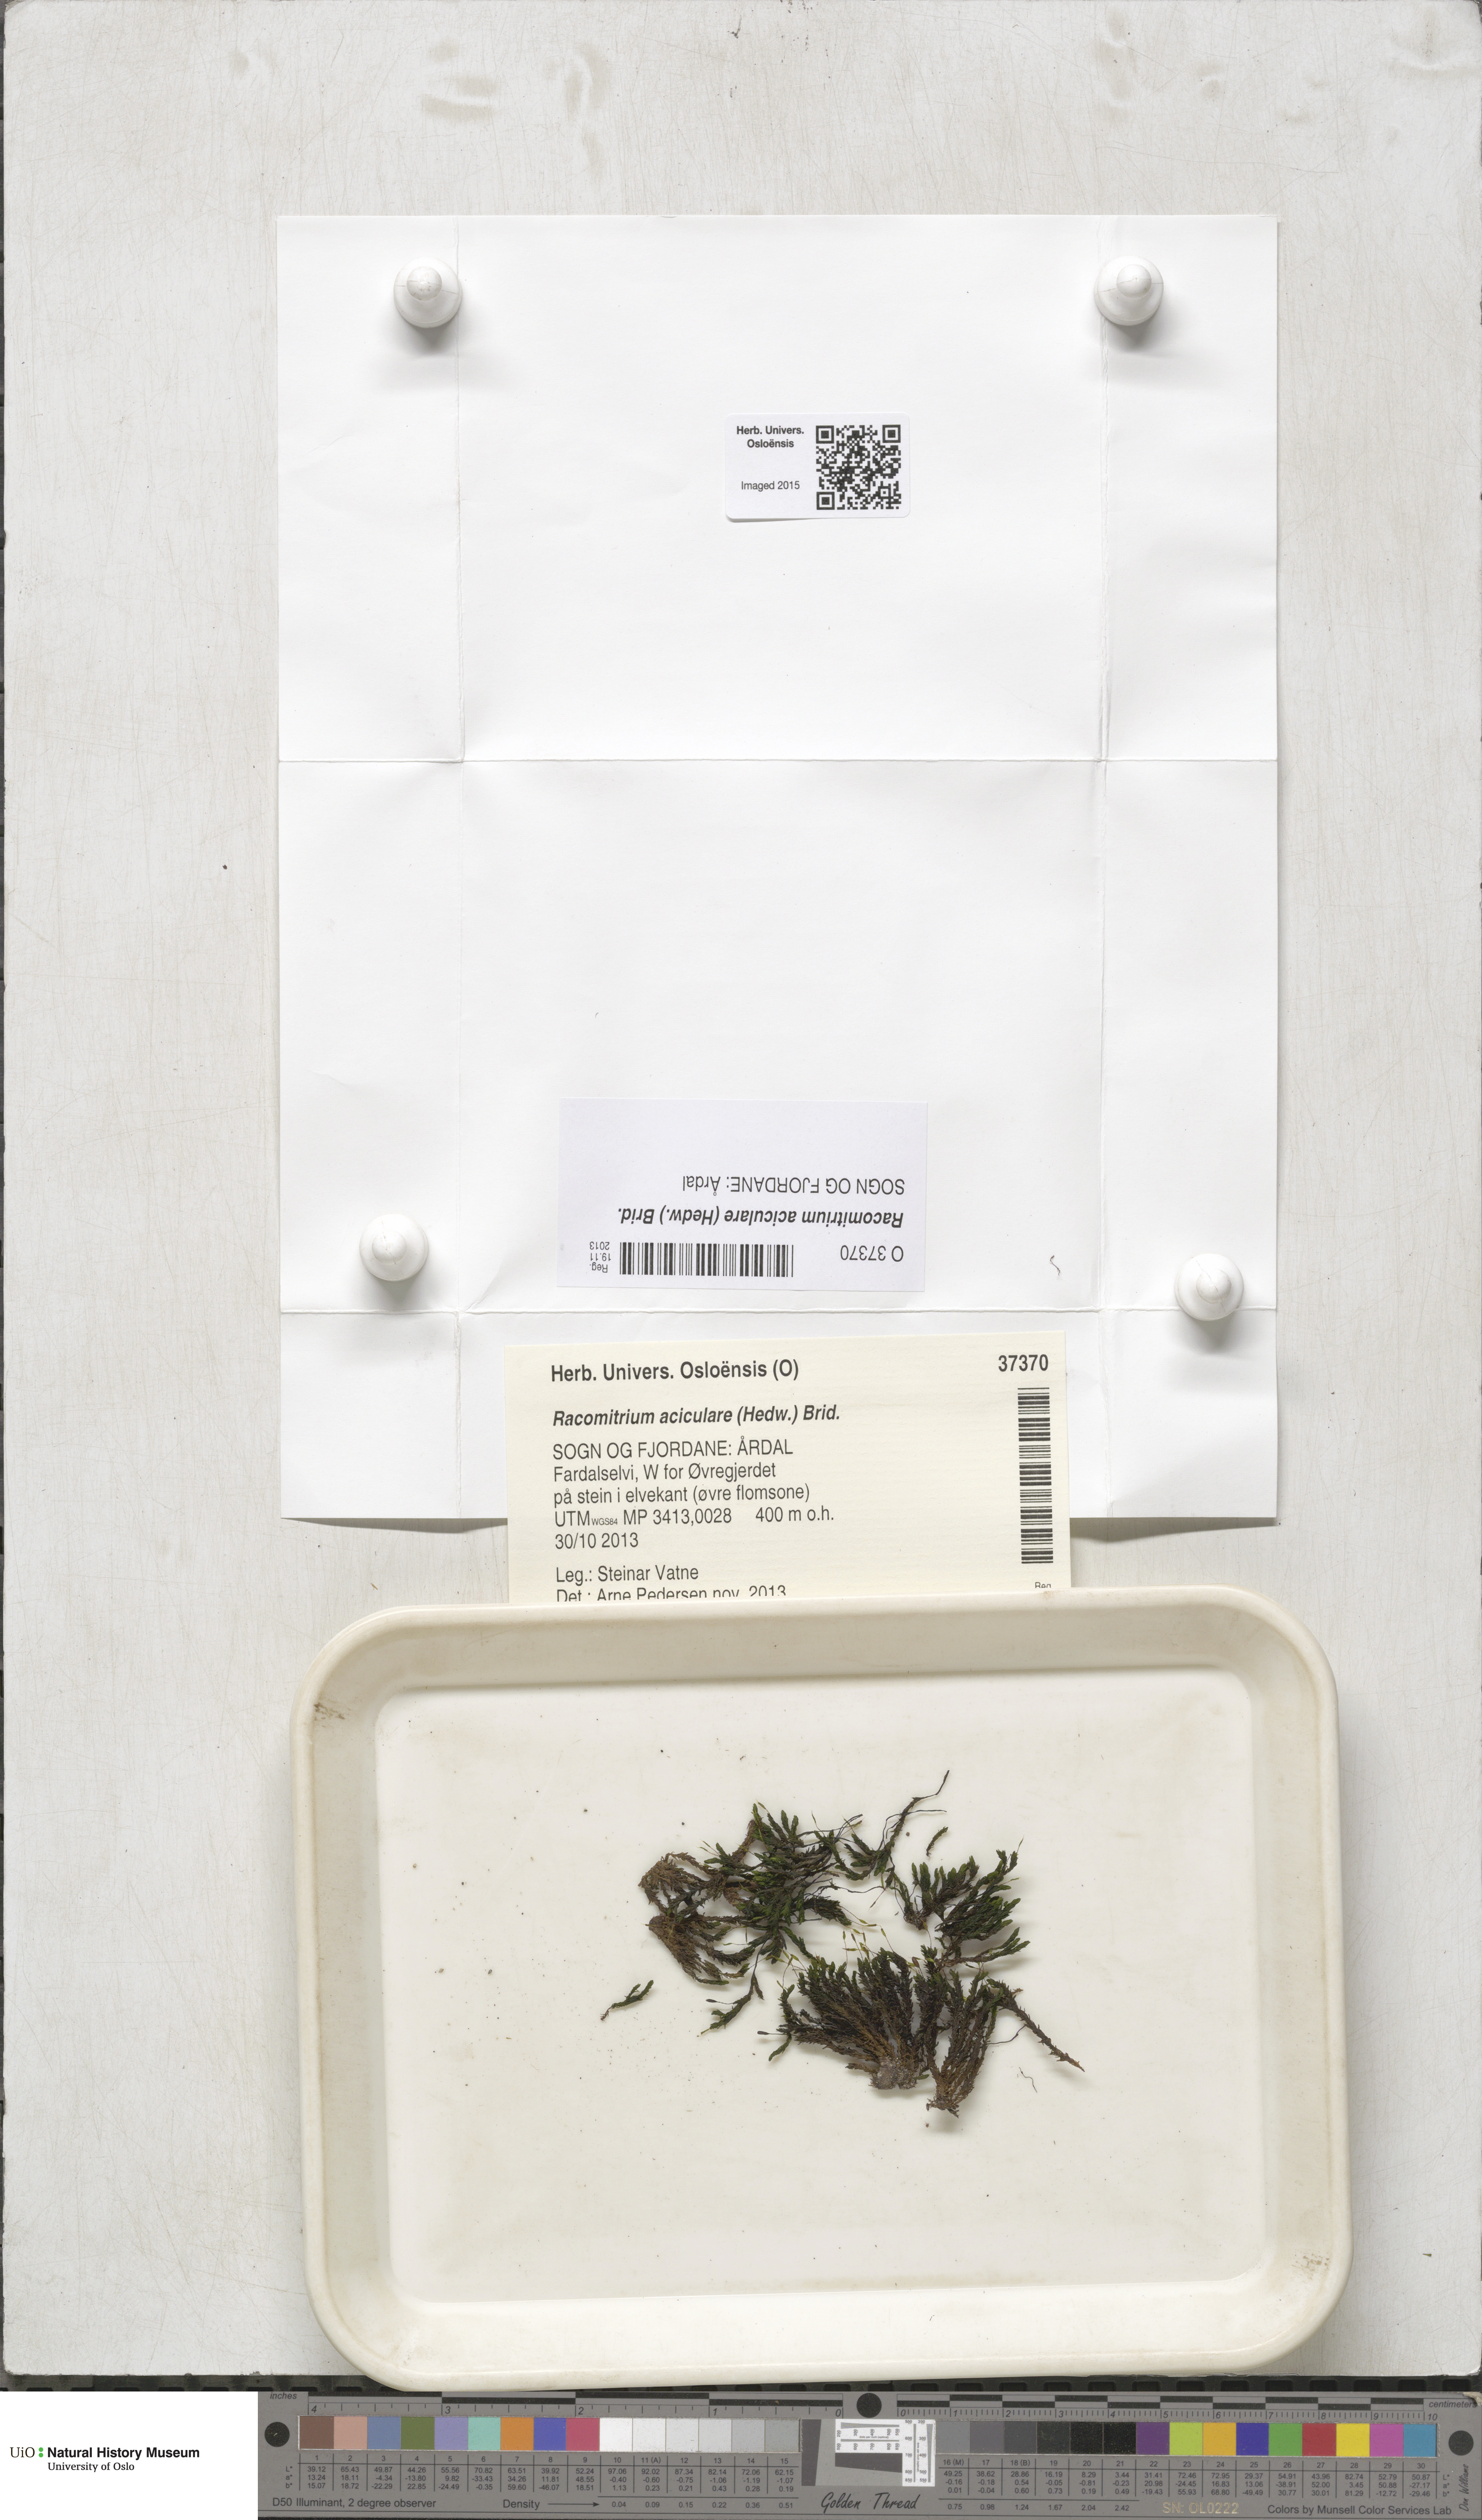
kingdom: Plantae
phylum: Bryophyta
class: Bryopsida
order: Grimmiales
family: Grimmiaceae
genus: Codriophorus
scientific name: Codriophorus acicularis
